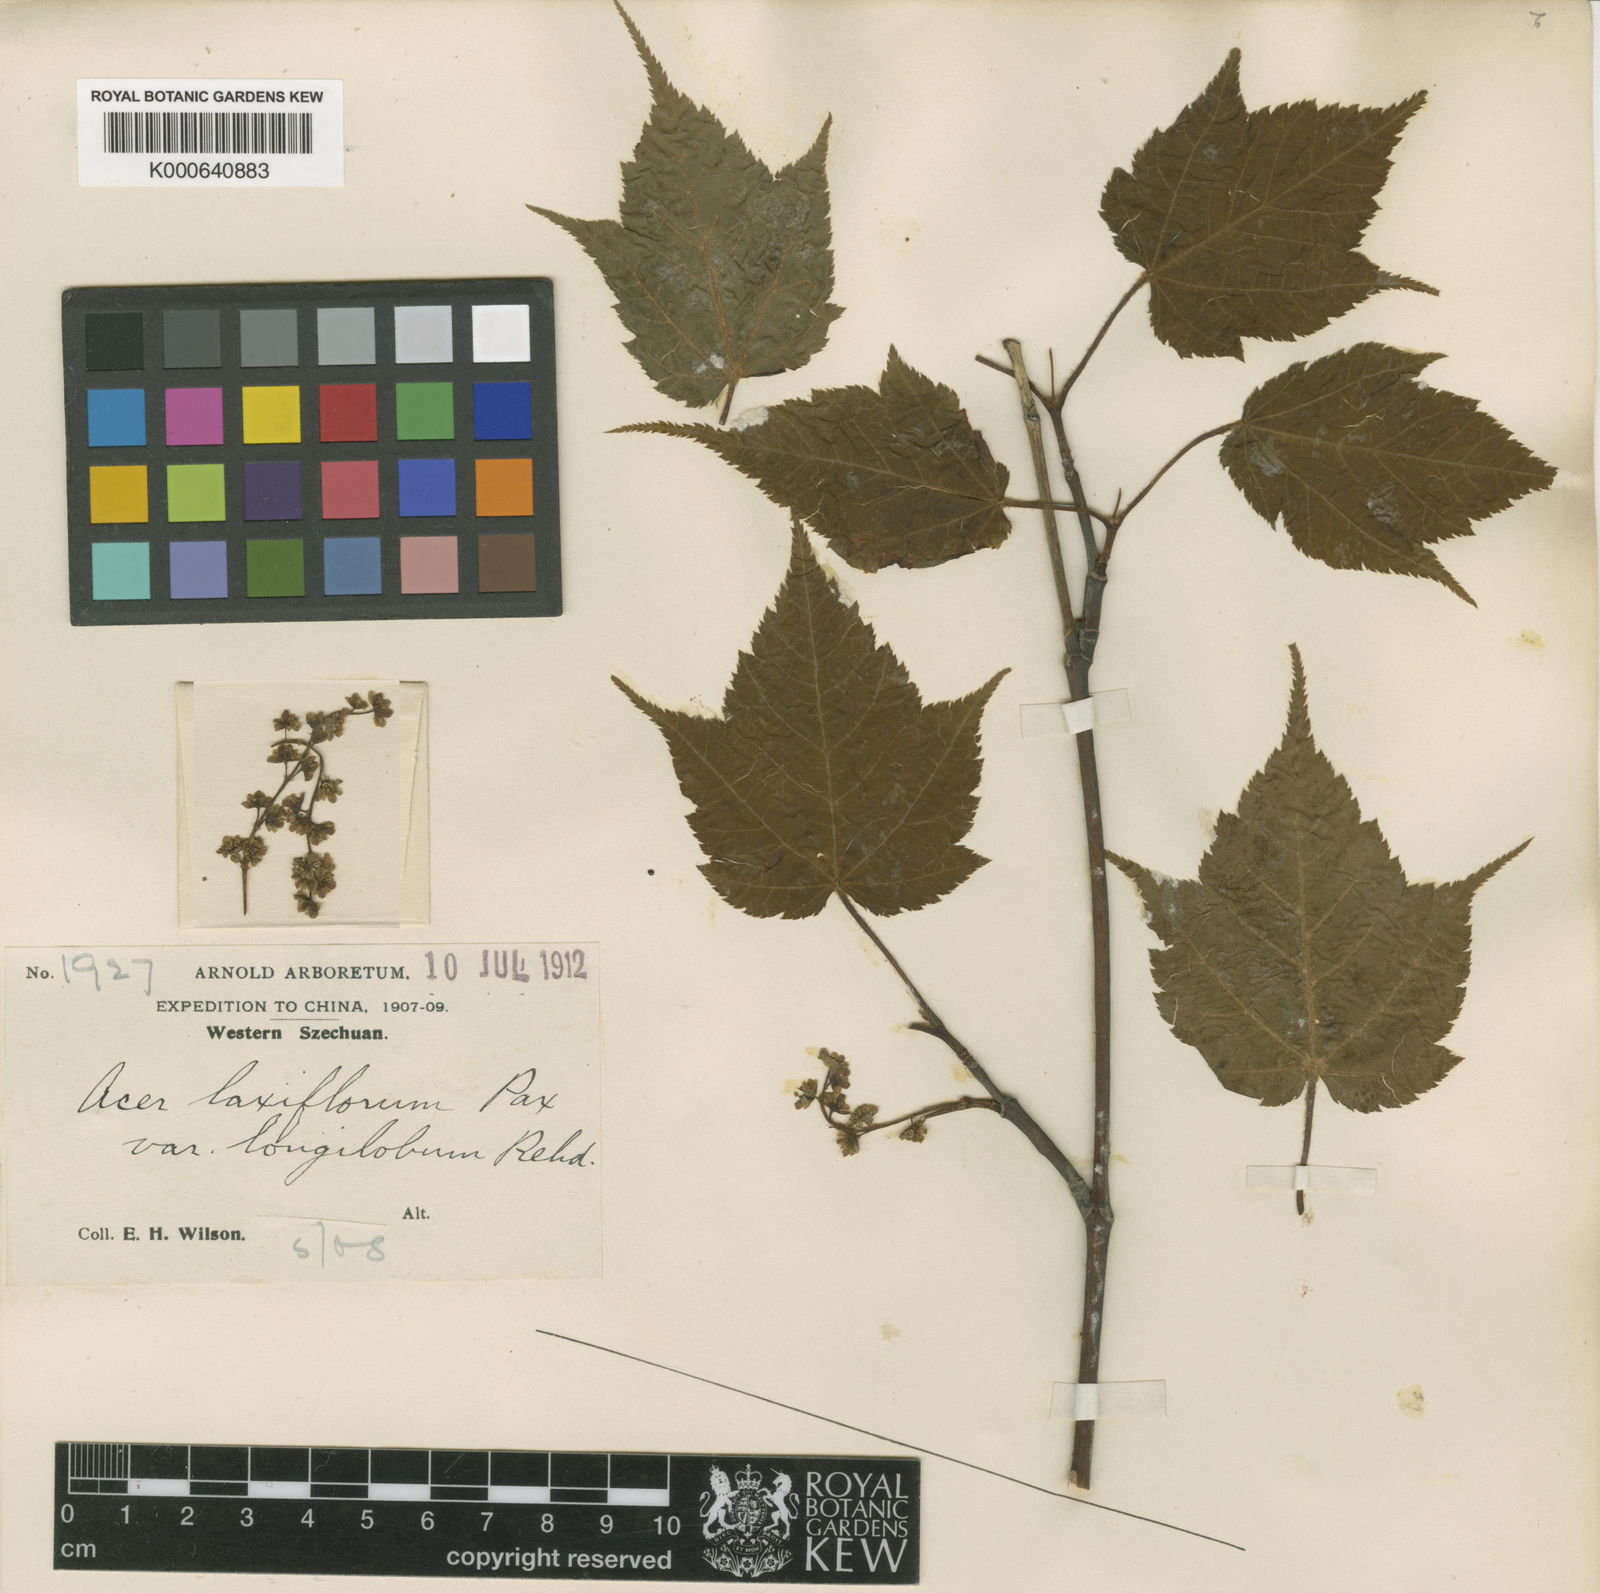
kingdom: Plantae
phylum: Tracheophyta
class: Magnoliopsida
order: Sapindales
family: Sapindaceae
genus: Acer
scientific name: Acer laxiflorum
